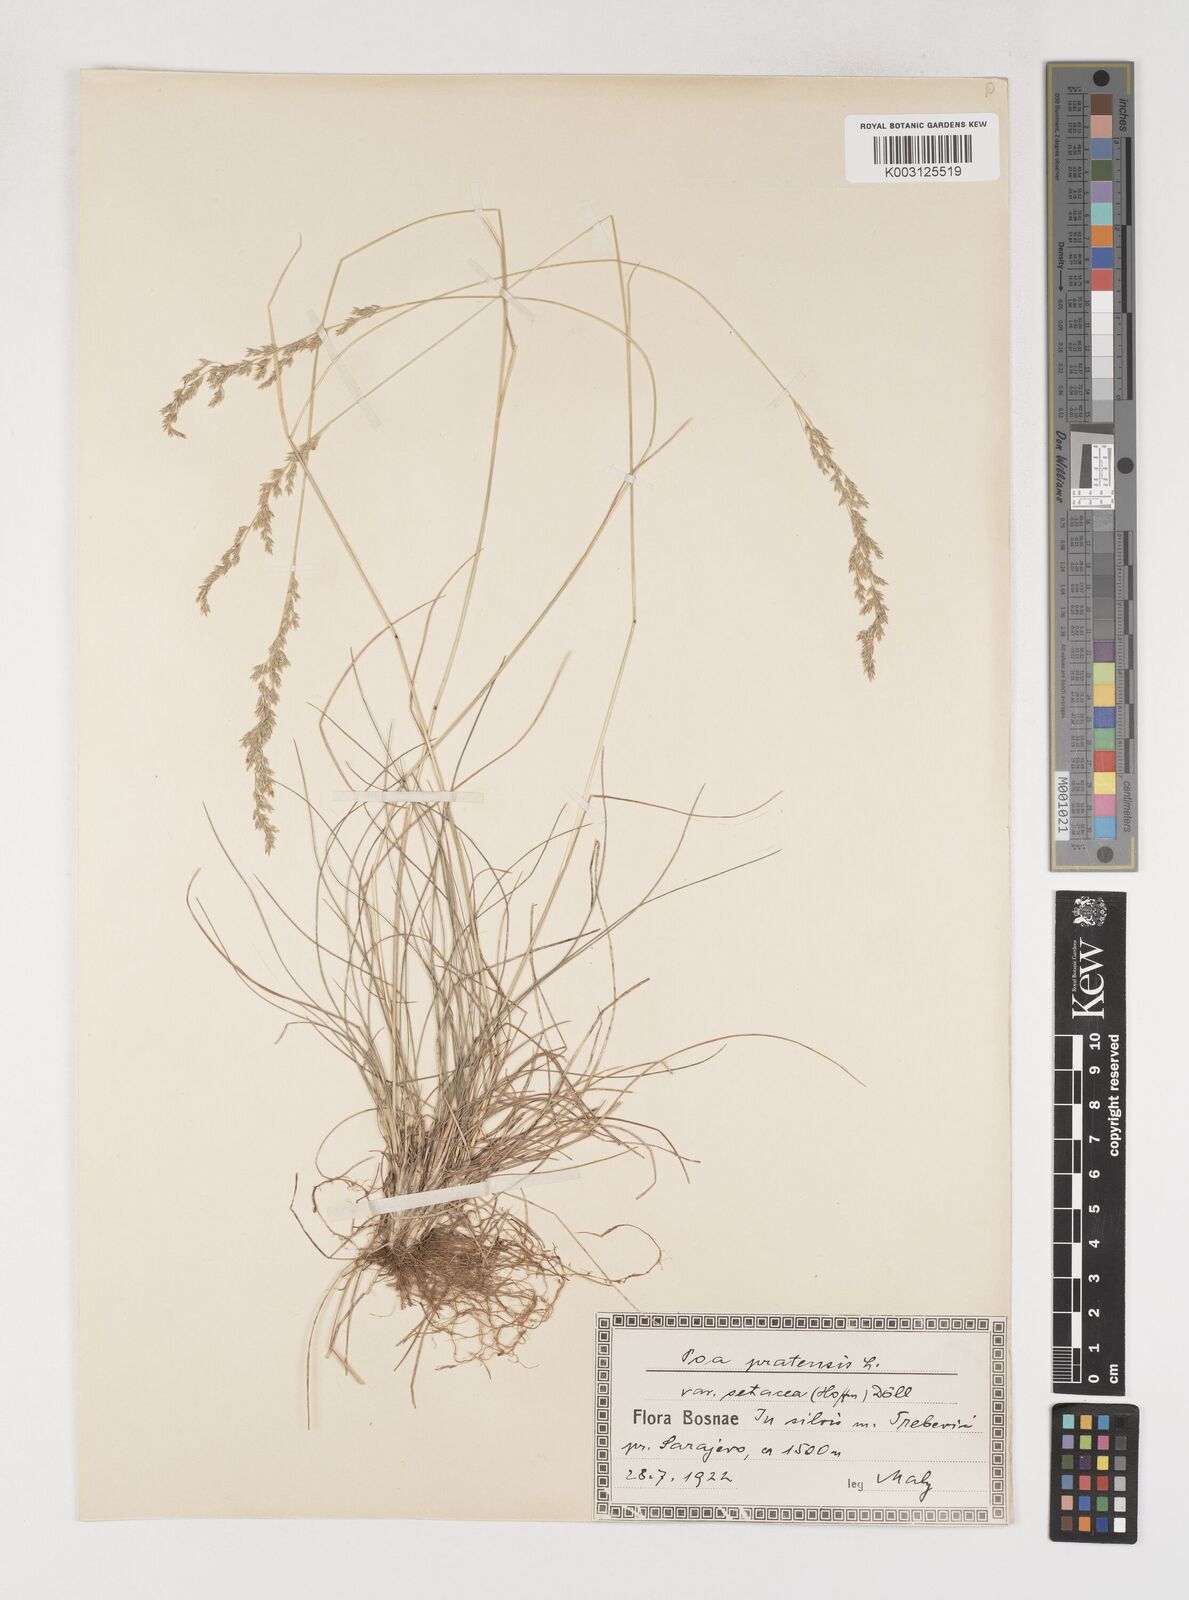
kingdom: Plantae
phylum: Tracheophyta
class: Liliopsida
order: Poales
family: Poaceae
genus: Poa
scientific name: Poa angustifolia
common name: Narrow-leaved meadow-grass
